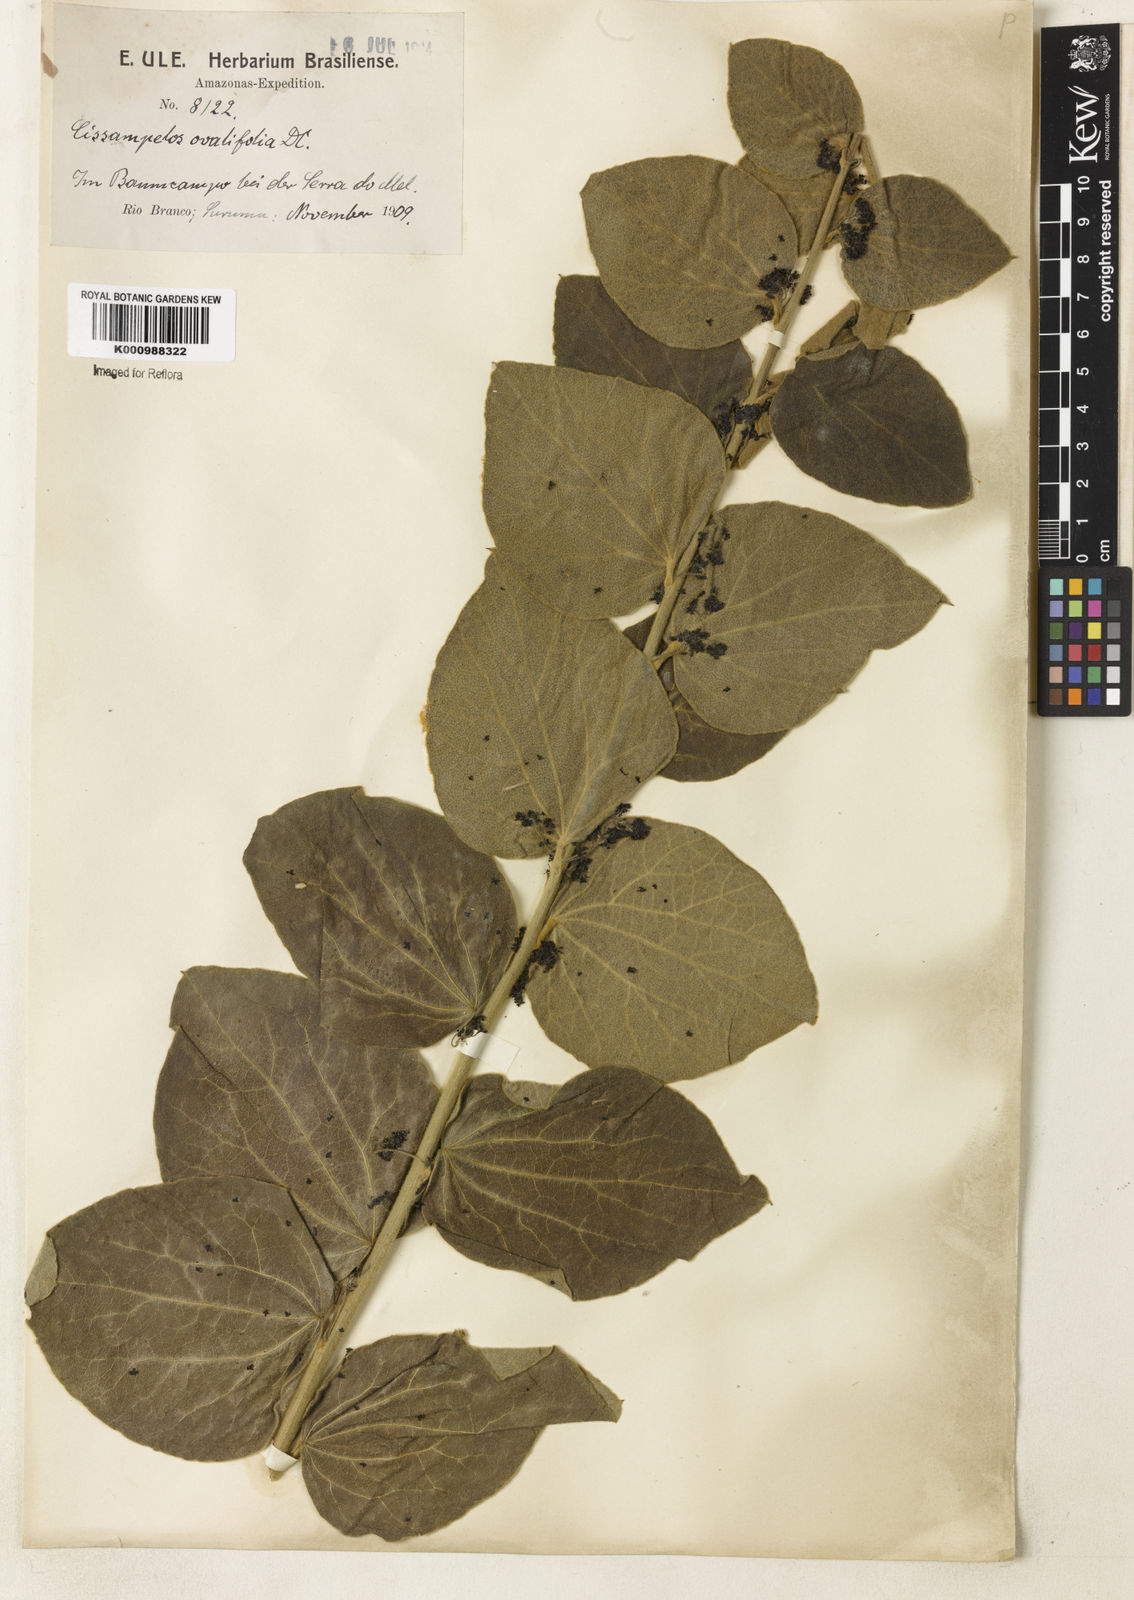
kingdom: Plantae
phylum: Tracheophyta
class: Magnoliopsida
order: Ranunculales
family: Menispermaceae
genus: Cissampelos
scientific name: Cissampelos ovalifolia
